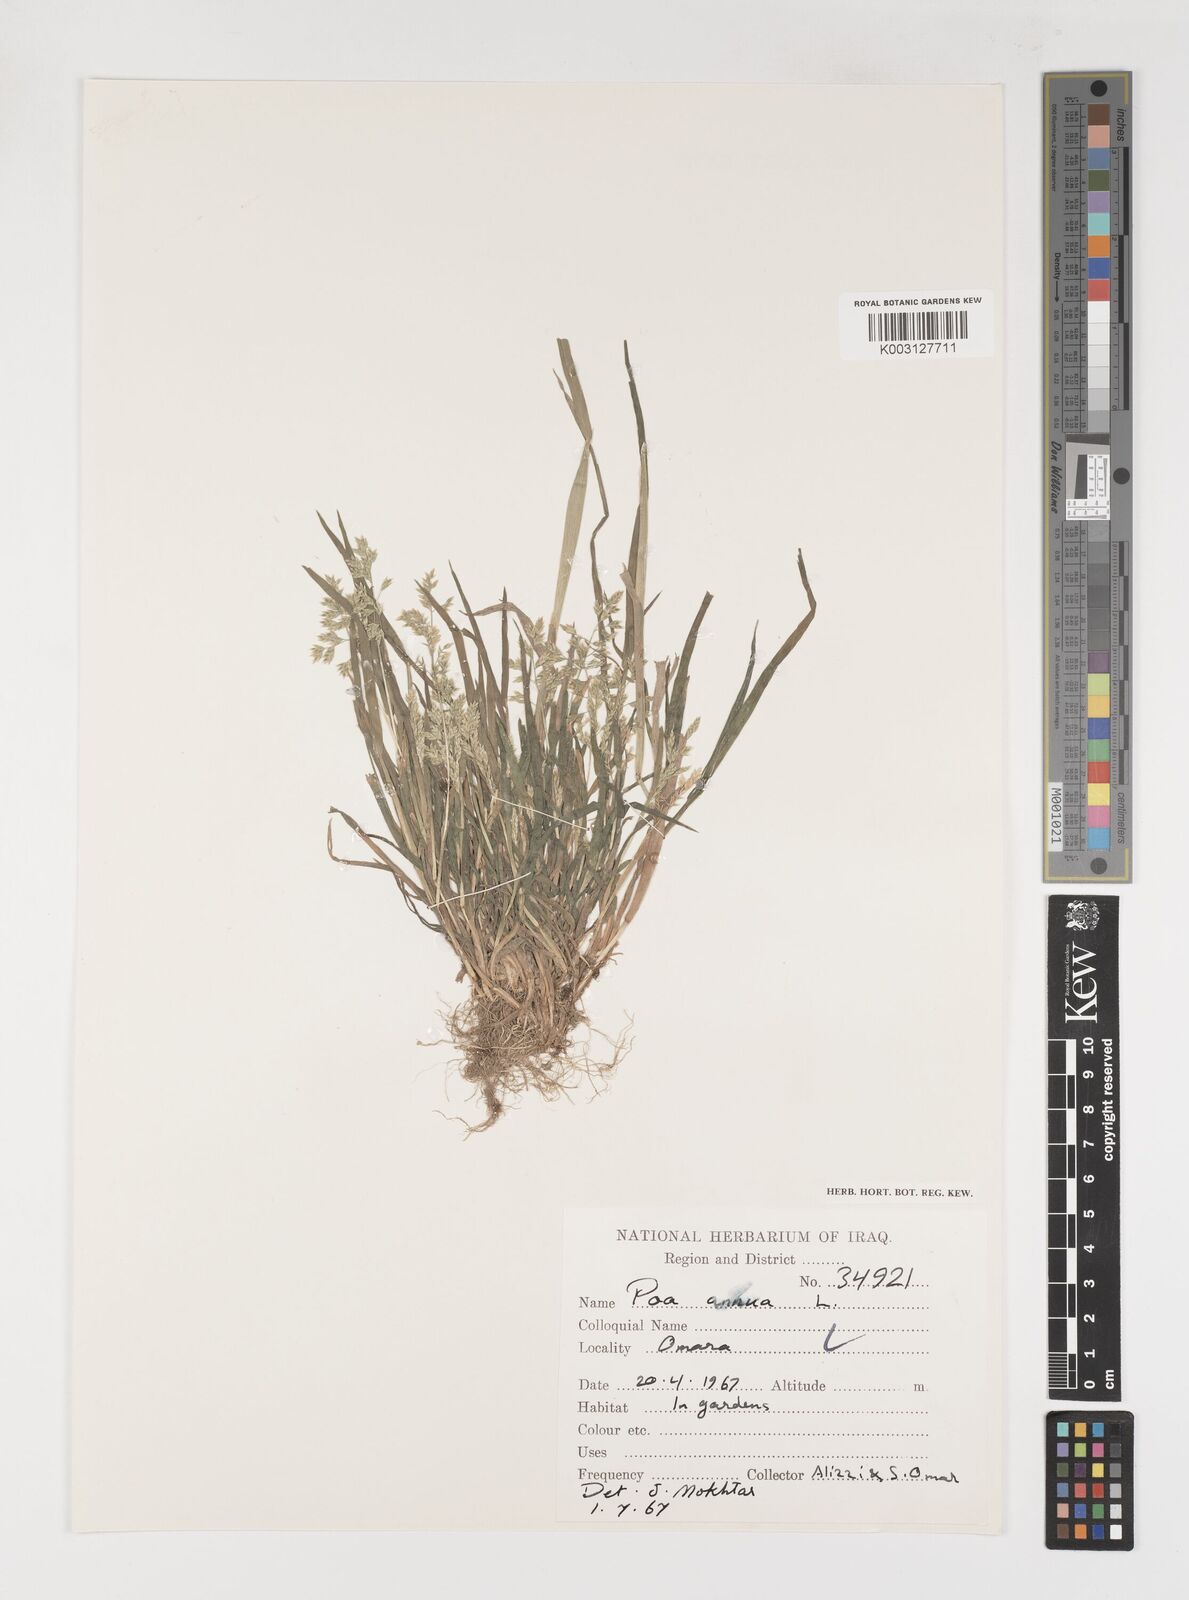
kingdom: Plantae
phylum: Tracheophyta
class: Liliopsida
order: Poales
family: Poaceae
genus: Poa
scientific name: Poa annua
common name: Annual bluegrass
